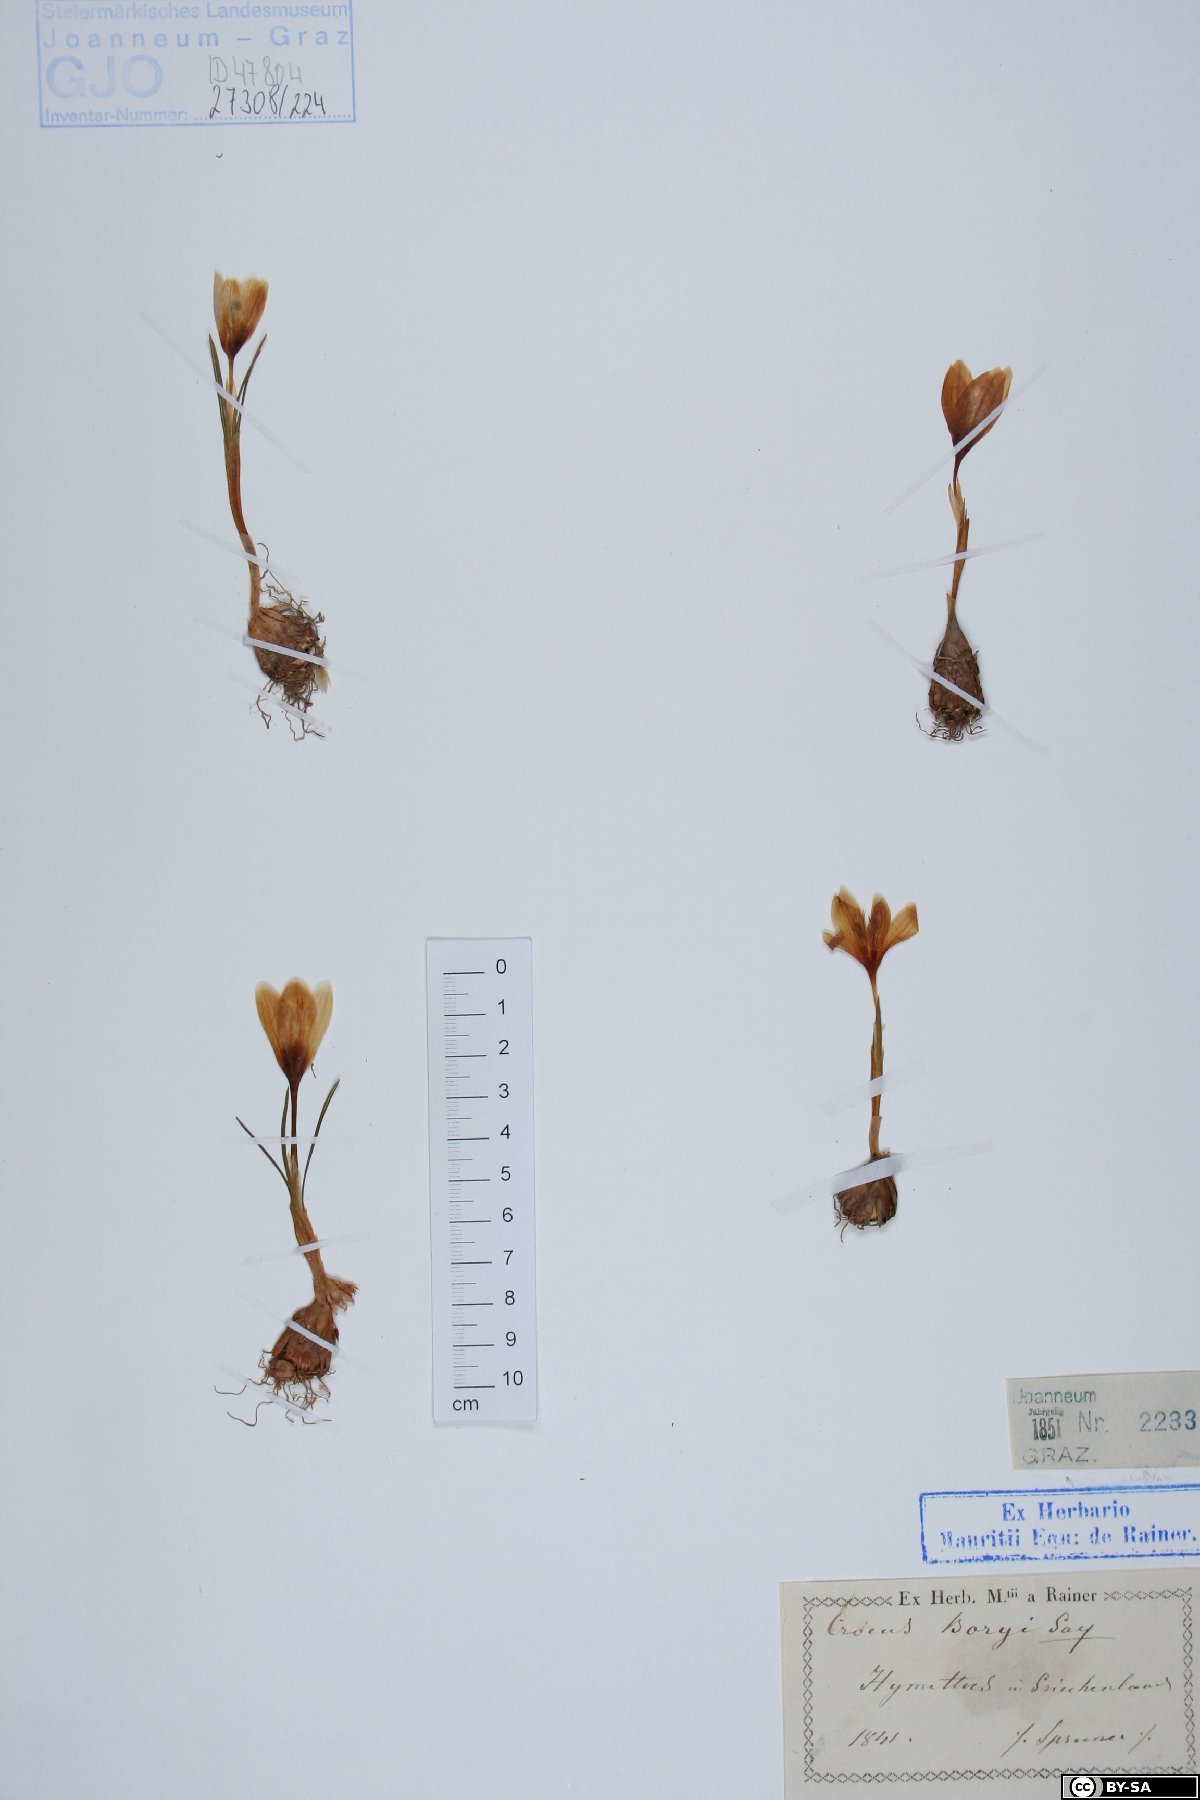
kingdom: Plantae
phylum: Tracheophyta
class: Liliopsida
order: Asparagales
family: Iridaceae
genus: Crocus
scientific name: Crocus boryi
